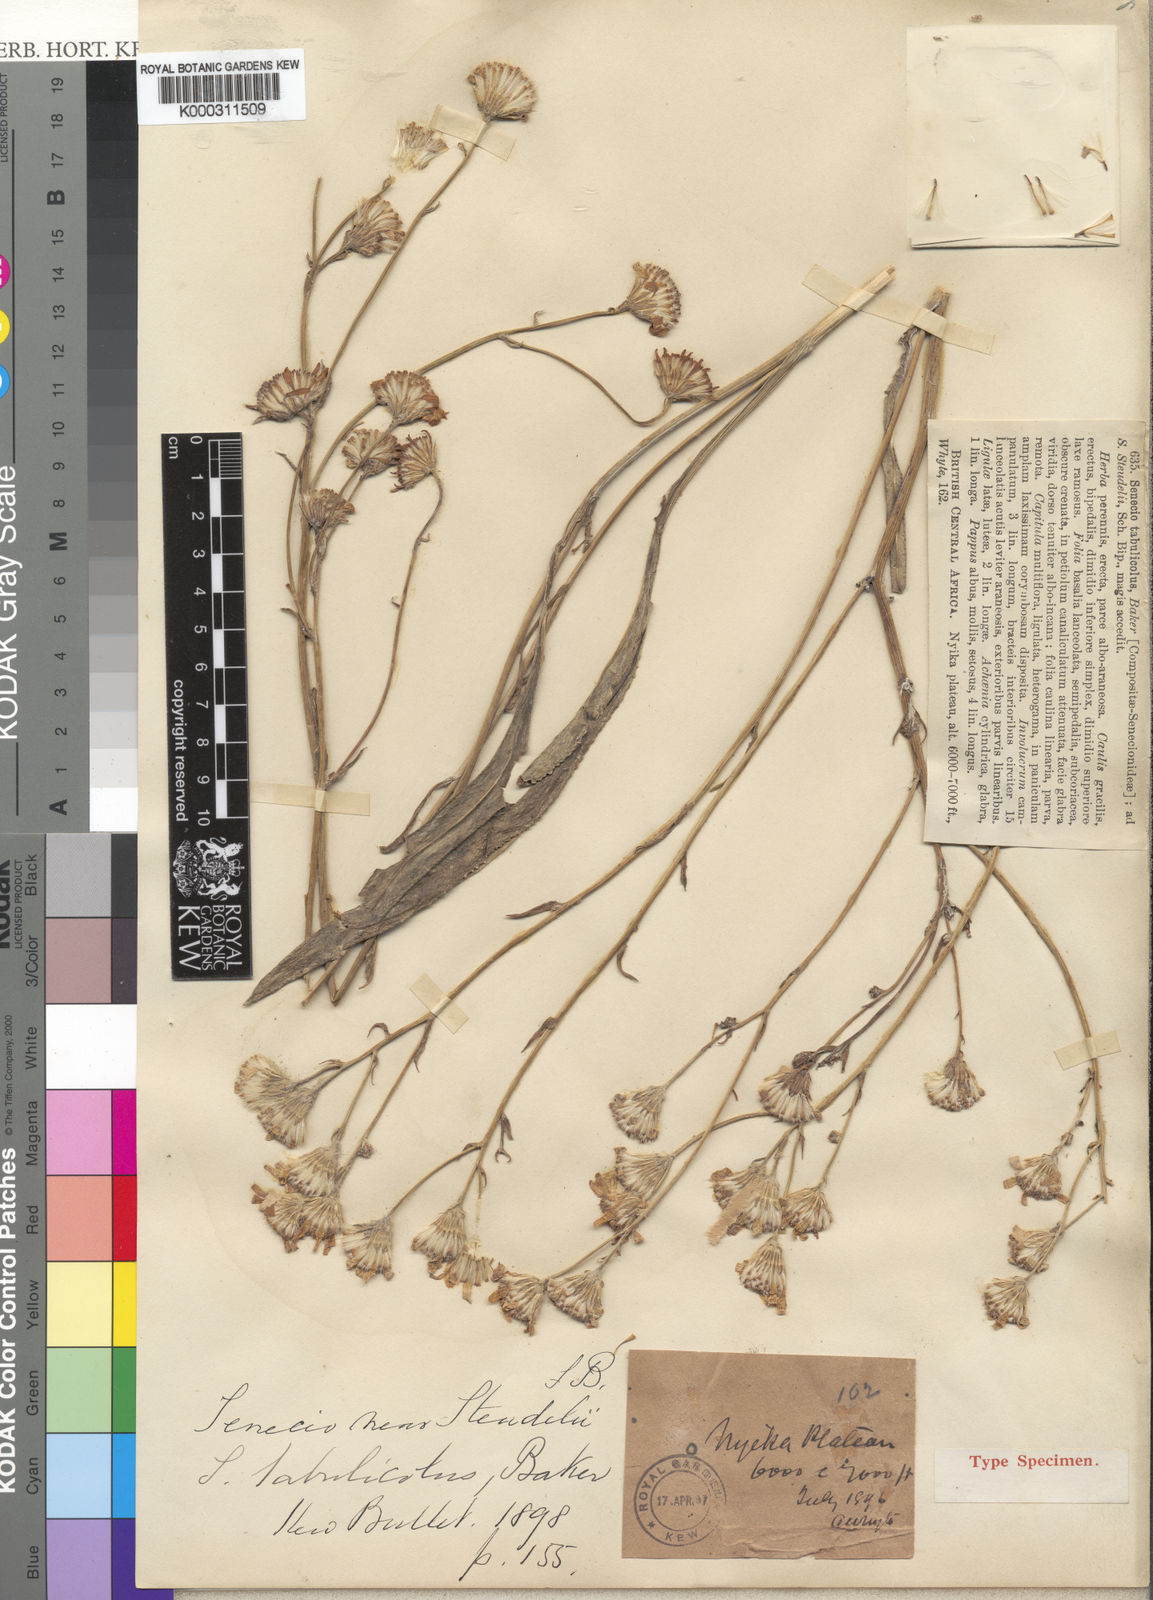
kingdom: Plantae
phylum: Tracheophyta
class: Magnoliopsida
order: Asterales
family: Asteraceae
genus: Senecio
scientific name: Senecio tabulicola
